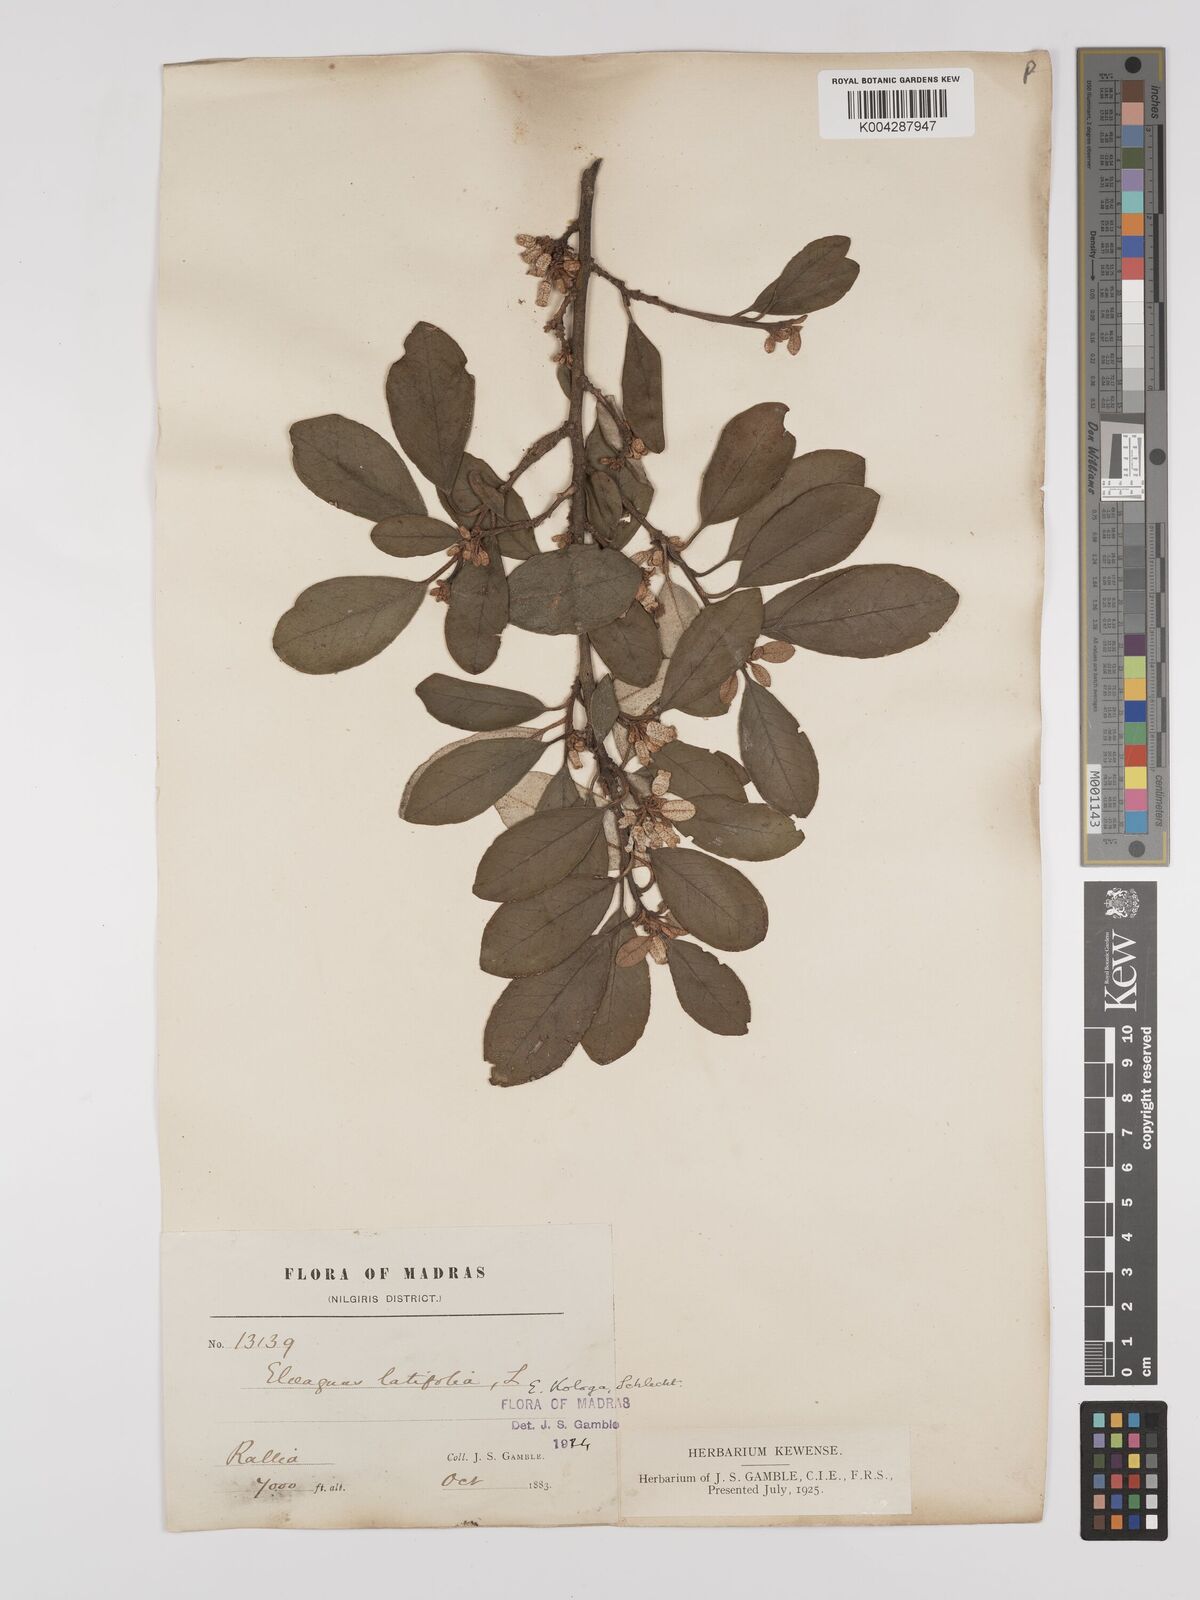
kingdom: Plantae
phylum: Tracheophyta
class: Magnoliopsida
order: Rosales
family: Elaeagnaceae
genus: Elaeagnus
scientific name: Elaeagnus latifolia
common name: Oleaster
